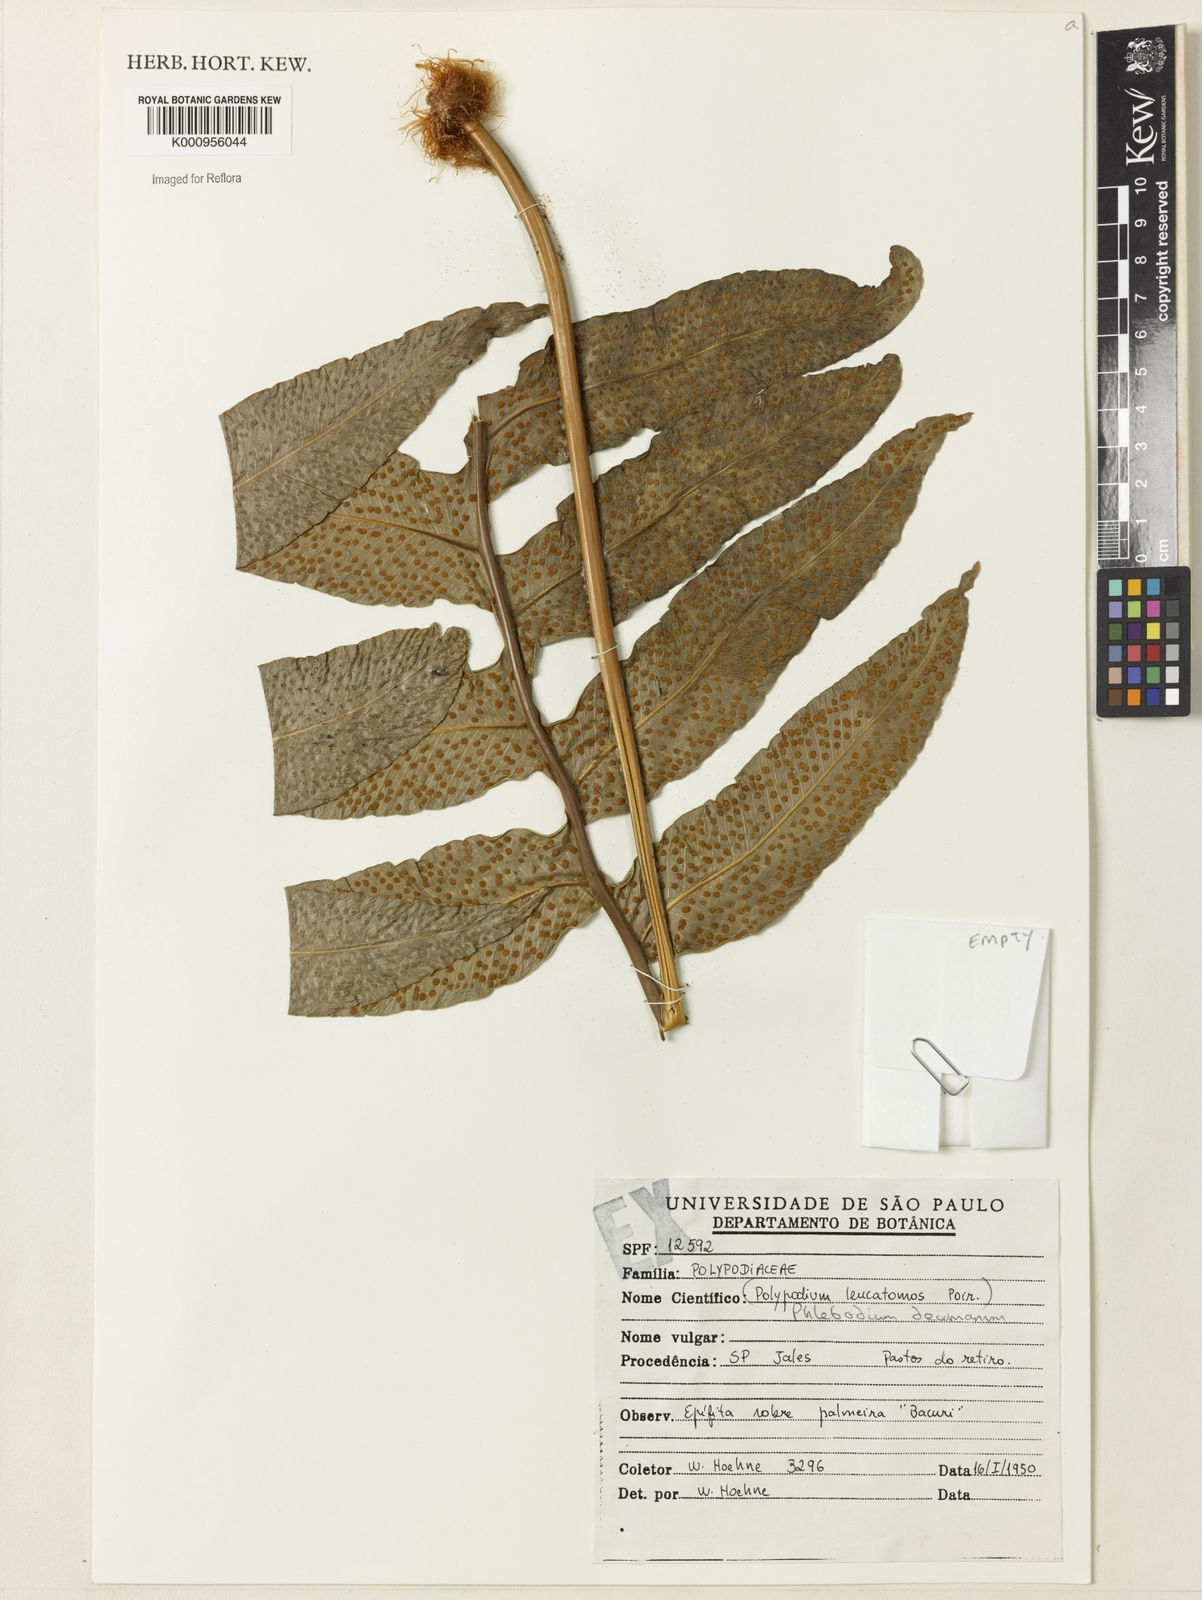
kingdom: Plantae
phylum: Tracheophyta
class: Polypodiopsida
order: Polypodiales
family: Polypodiaceae
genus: Phlebodium
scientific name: Phlebodium decumanum
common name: Golden polypod
